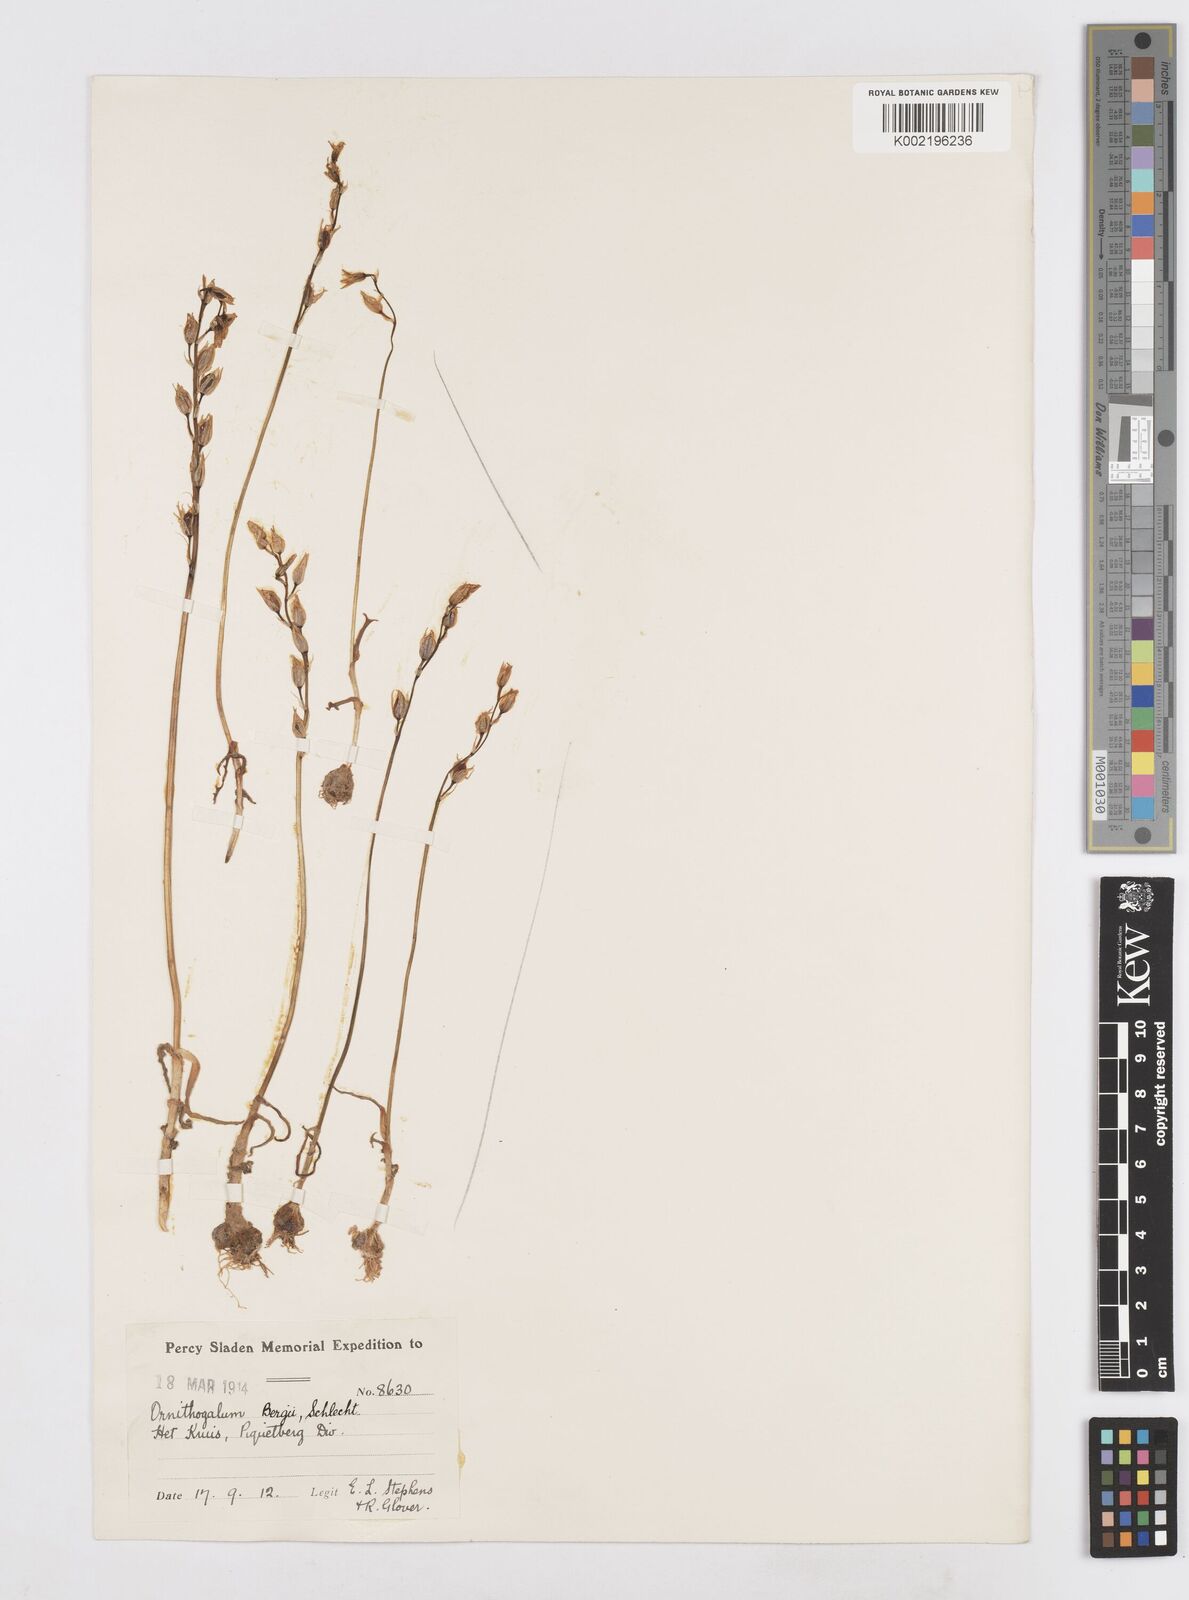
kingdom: Plantae
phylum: Tracheophyta
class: Liliopsida
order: Asparagales
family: Asparagaceae
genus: Ornithogalum
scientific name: Ornithogalum hispidum
